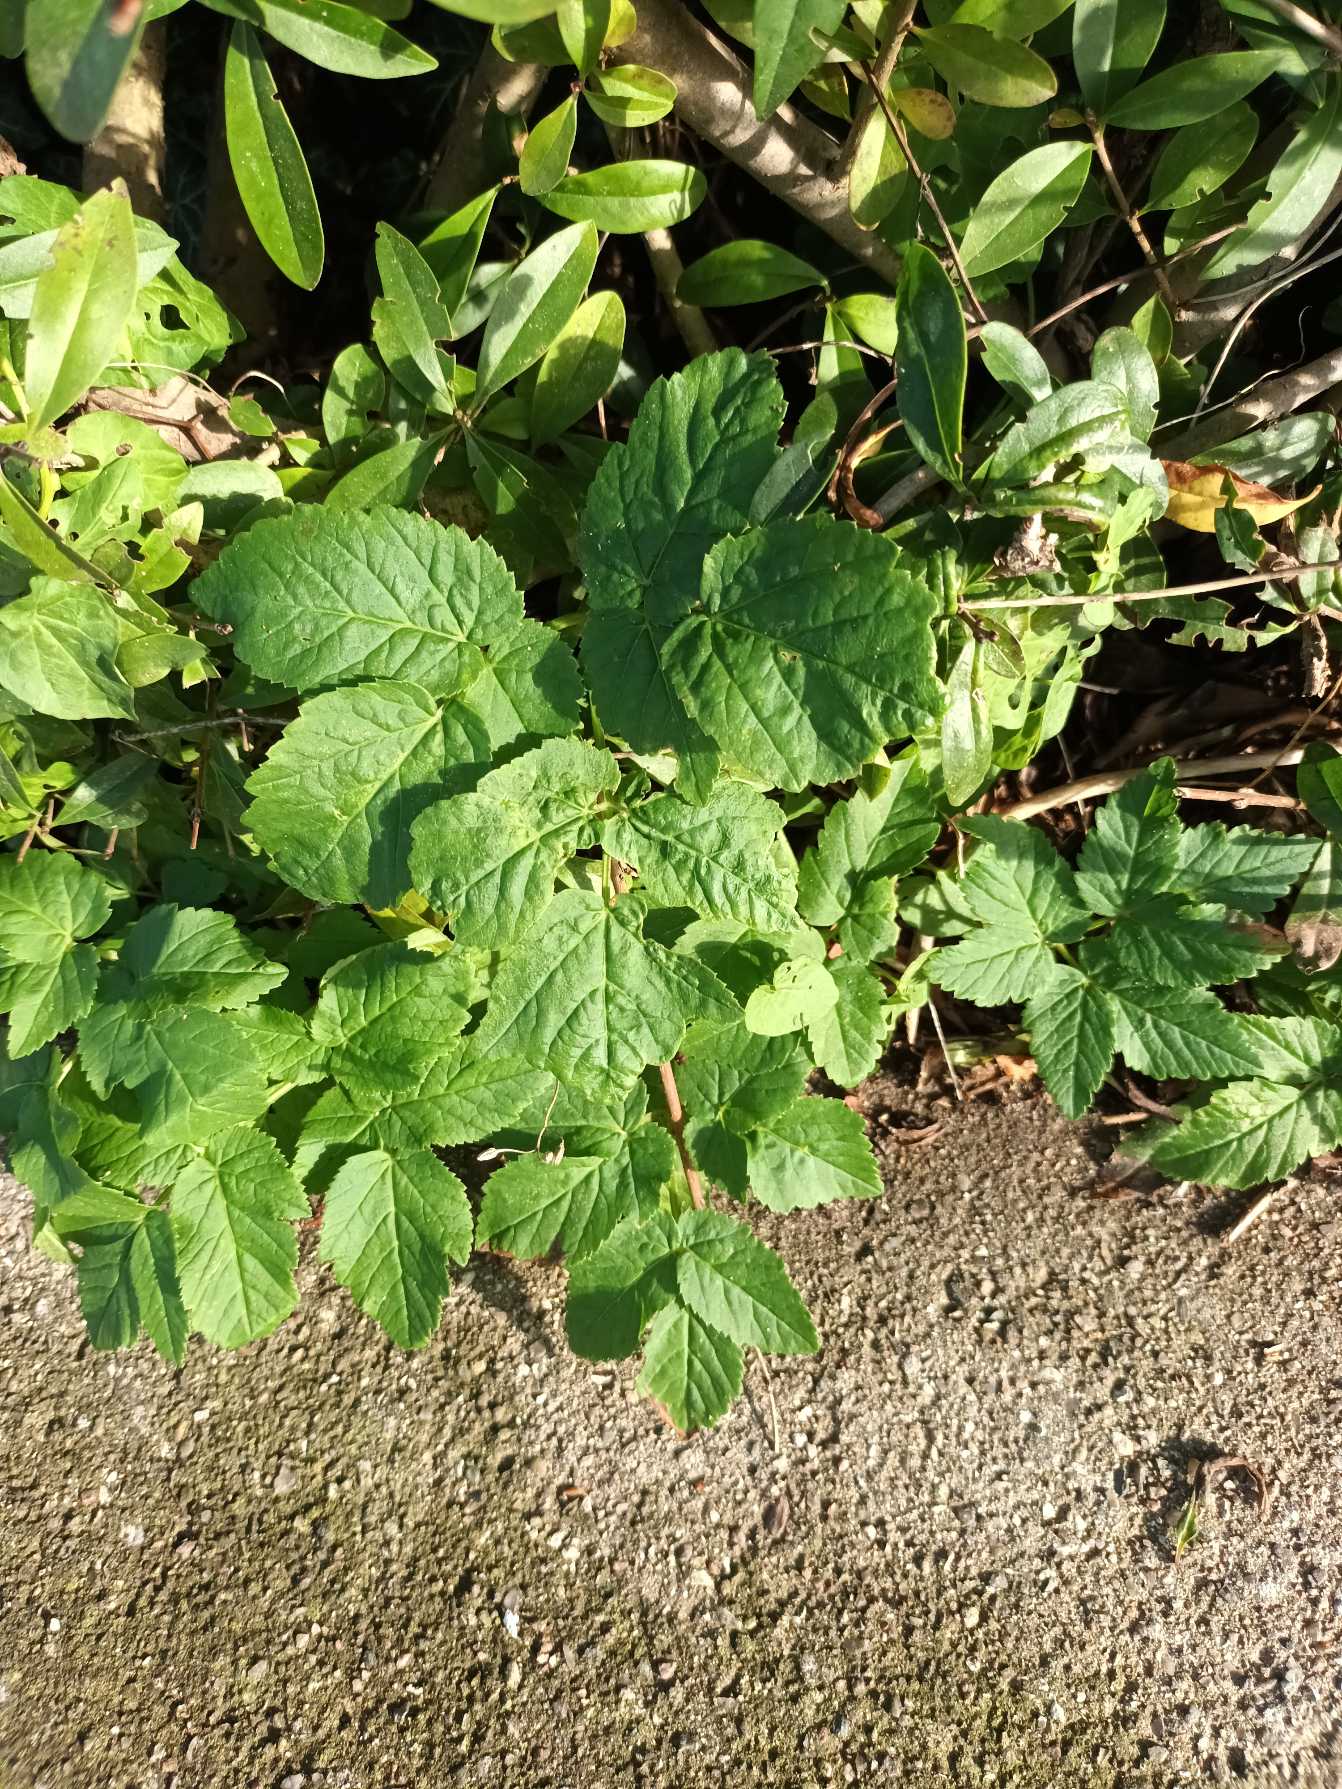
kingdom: Plantae
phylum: Tracheophyta
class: Magnoliopsida
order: Apiales
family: Apiaceae
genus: Aegopodium
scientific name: Aegopodium podagraria
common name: Skvalderkål
